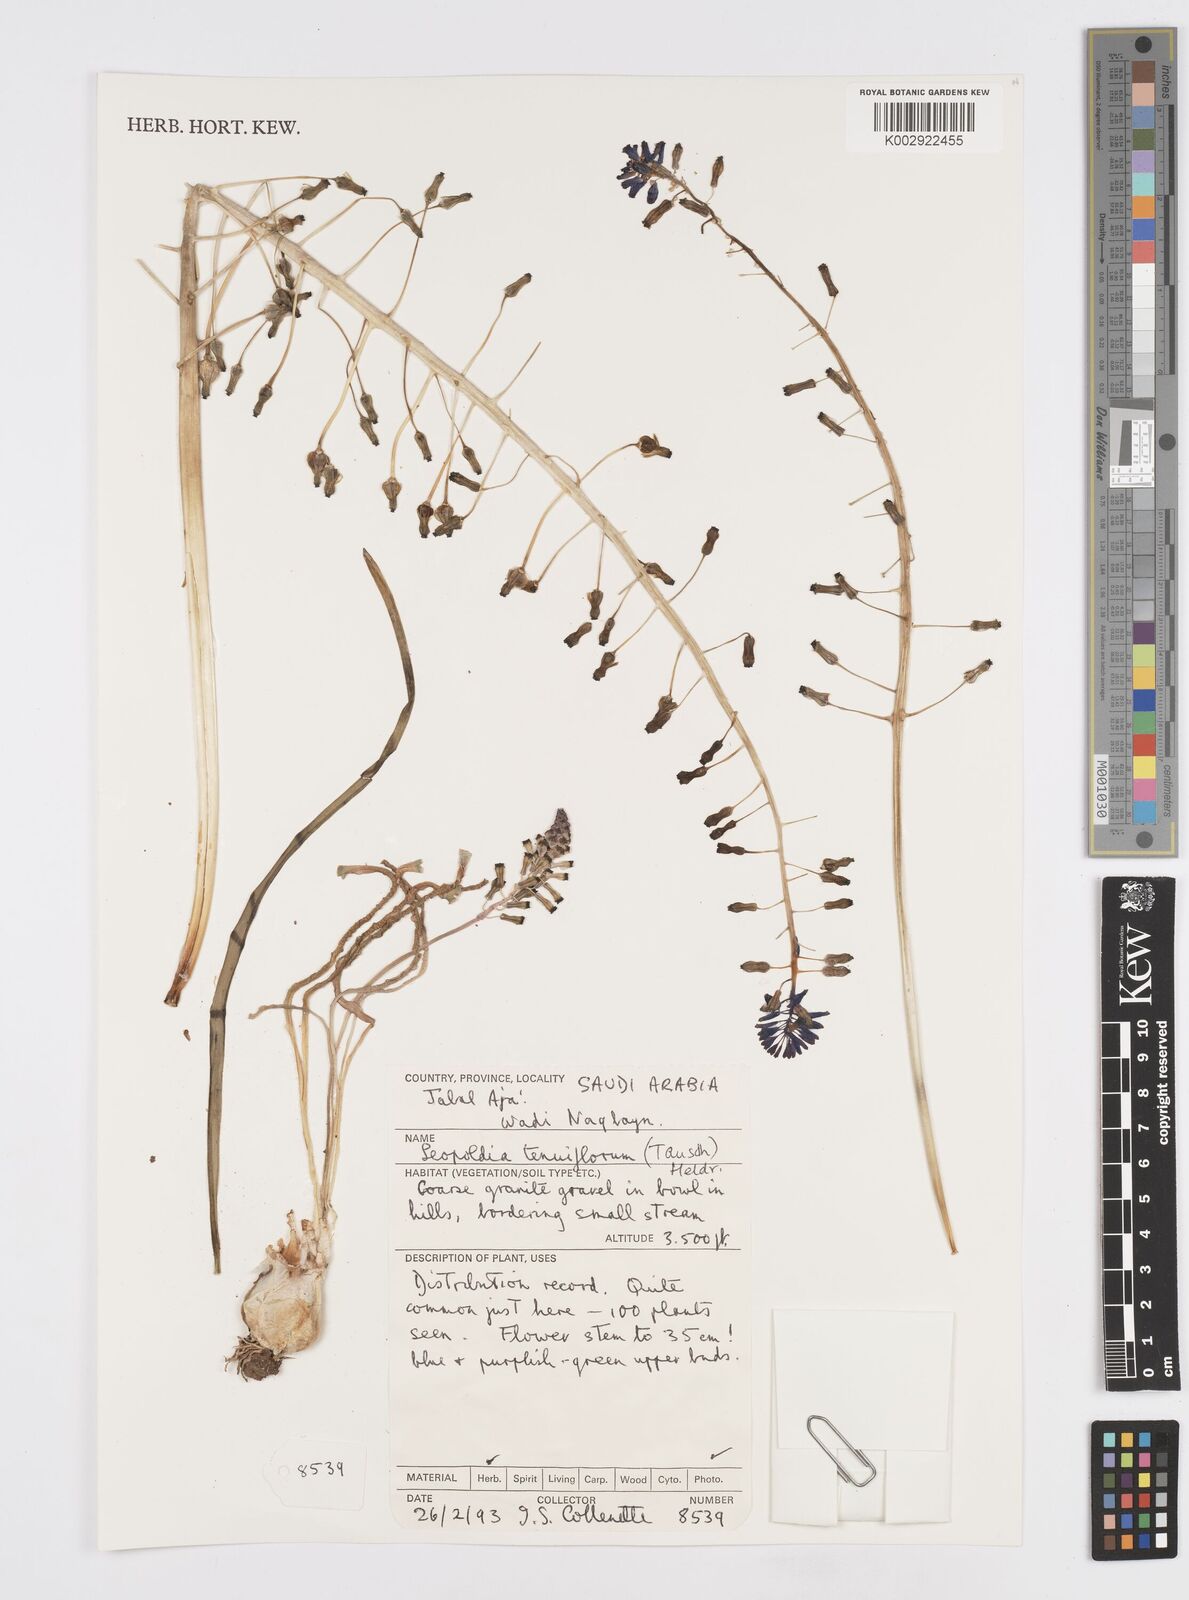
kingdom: Plantae
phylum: Tracheophyta
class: Liliopsida
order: Asparagales
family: Asparagaceae
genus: Muscari
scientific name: Muscari tenuiflorum
